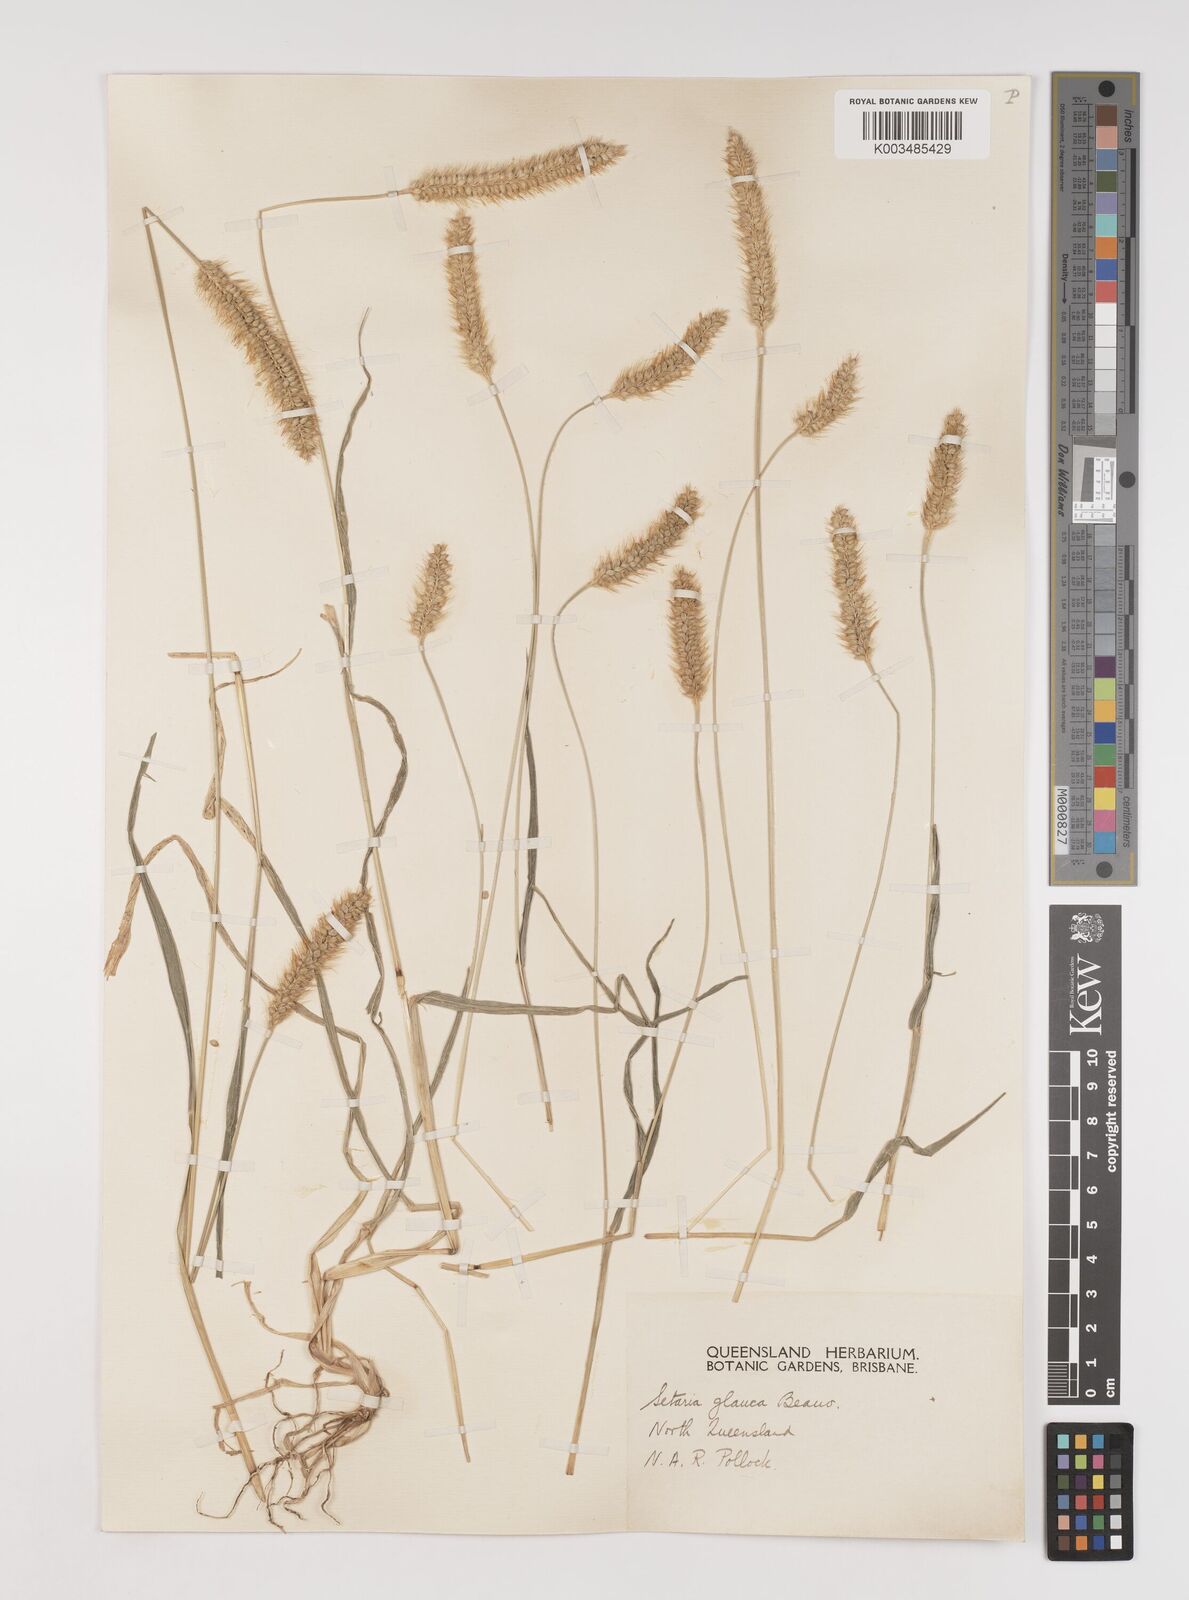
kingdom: Plantae
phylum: Tracheophyta
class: Liliopsida
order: Poales
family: Poaceae
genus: Setaria
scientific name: Setaria pumila
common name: Yellow bristle-grass
